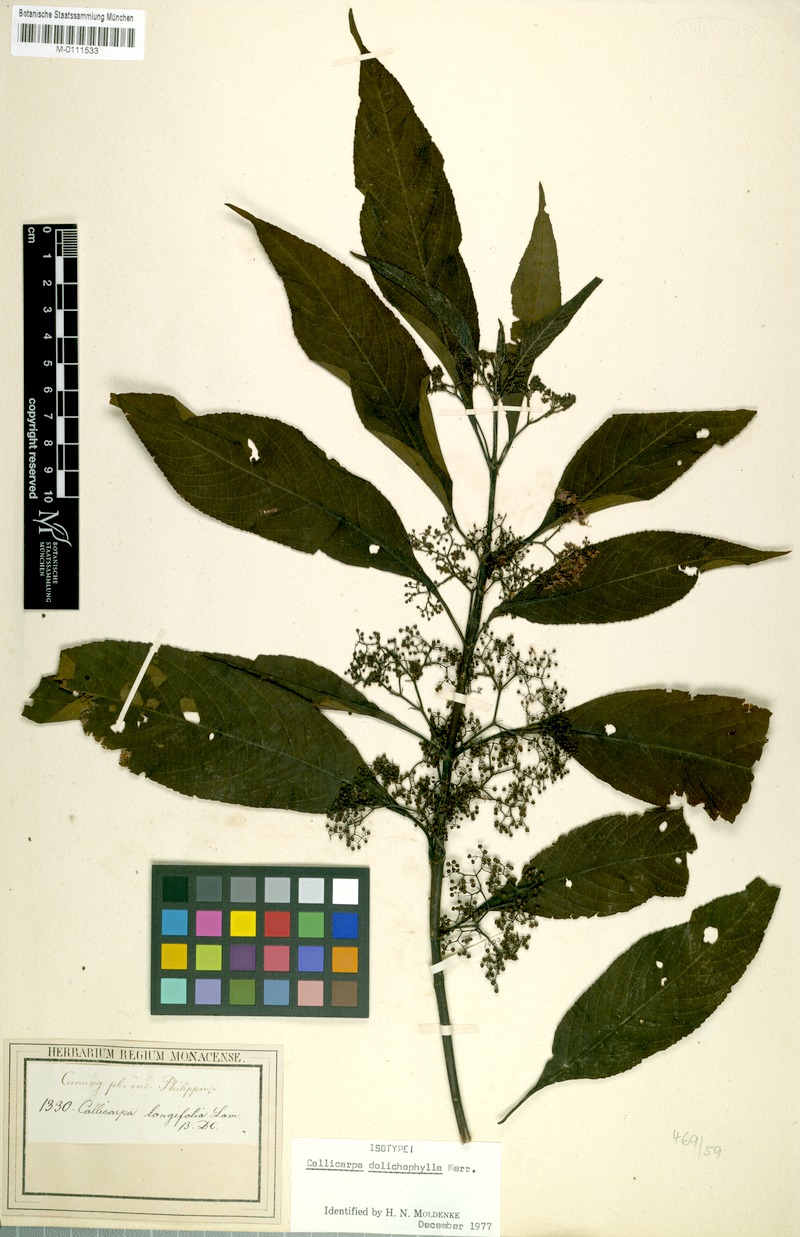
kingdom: Plantae
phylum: Tracheophyta
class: Magnoliopsida
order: Lamiales
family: Lamiaceae
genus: Callicarpa
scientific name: Callicarpa dolichophylla
